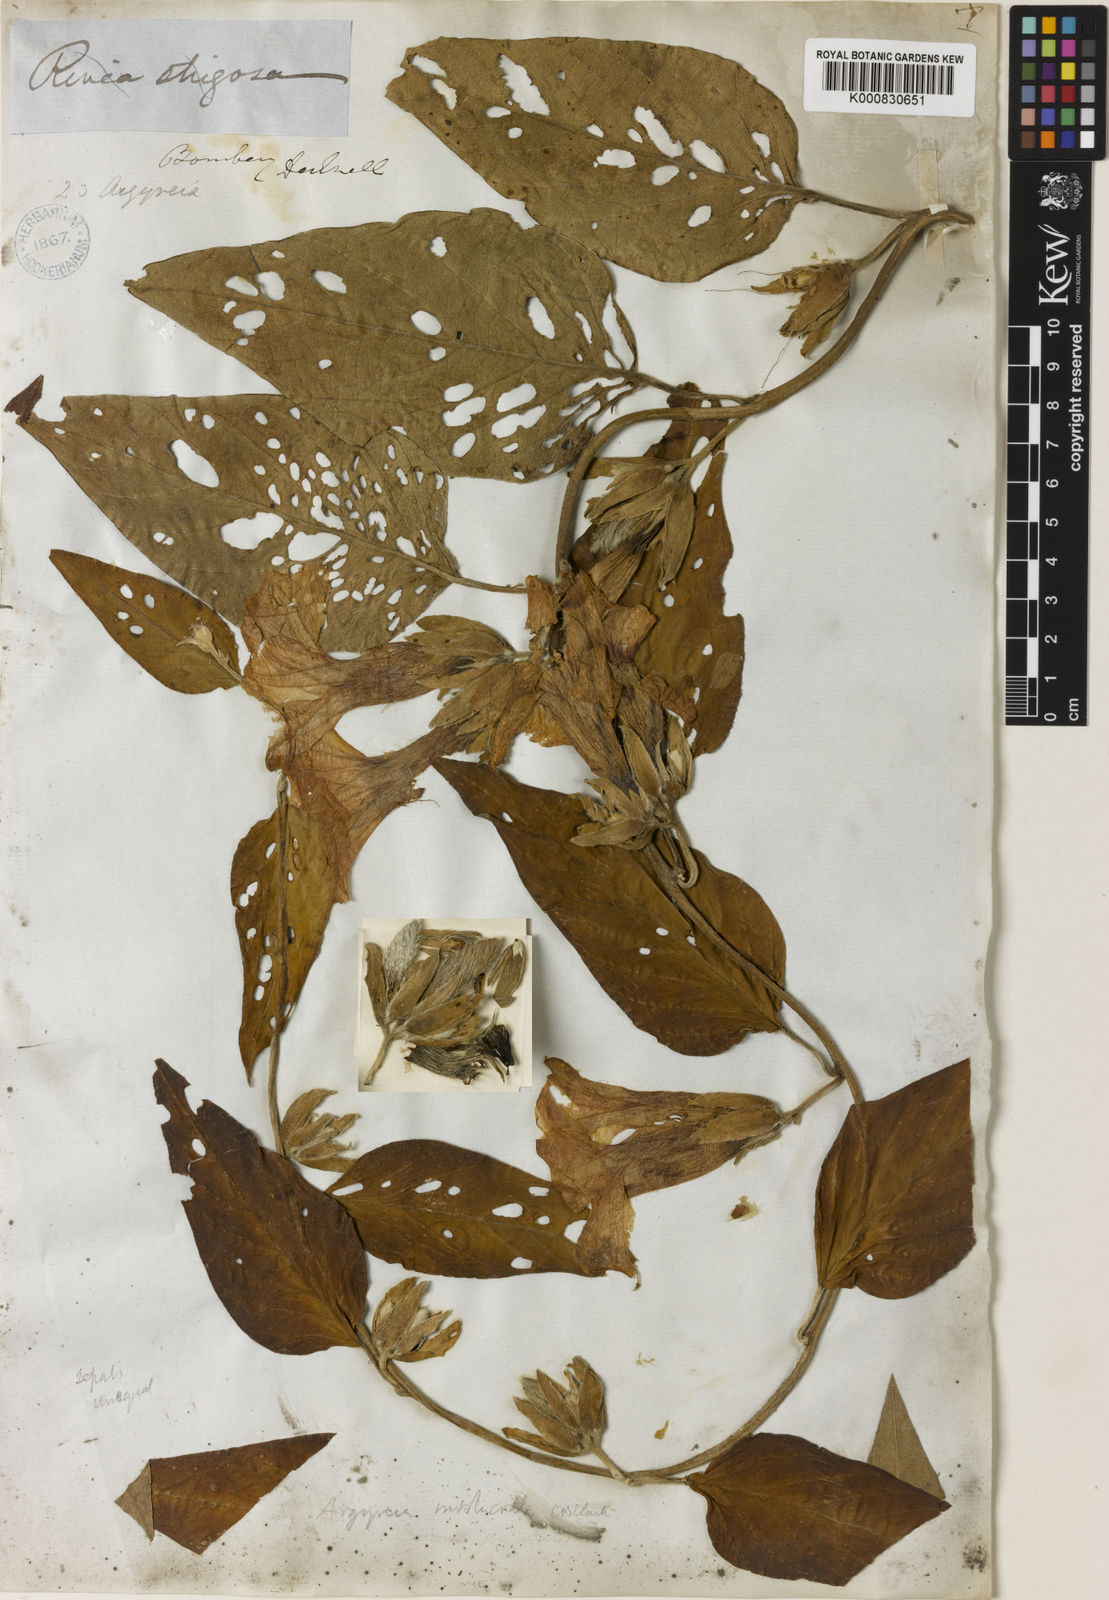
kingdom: Plantae
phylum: Tracheophyta
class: Magnoliopsida
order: Solanales
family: Convolvulaceae
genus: Argyreia
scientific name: Argyreia involucrata
